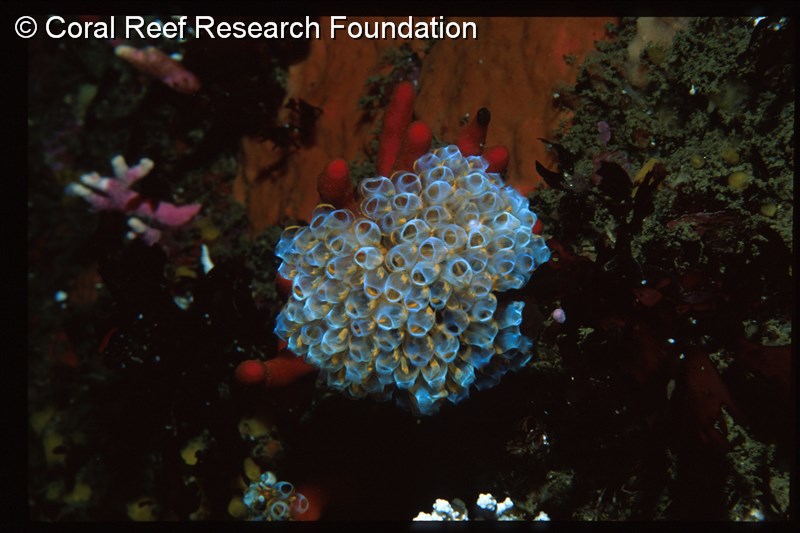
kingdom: Animalia
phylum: Chordata
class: Ascidiacea
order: Aplousobranchia
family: Clavelinidae
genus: Pycnoclavella
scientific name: Pycnoclavella narcissus
